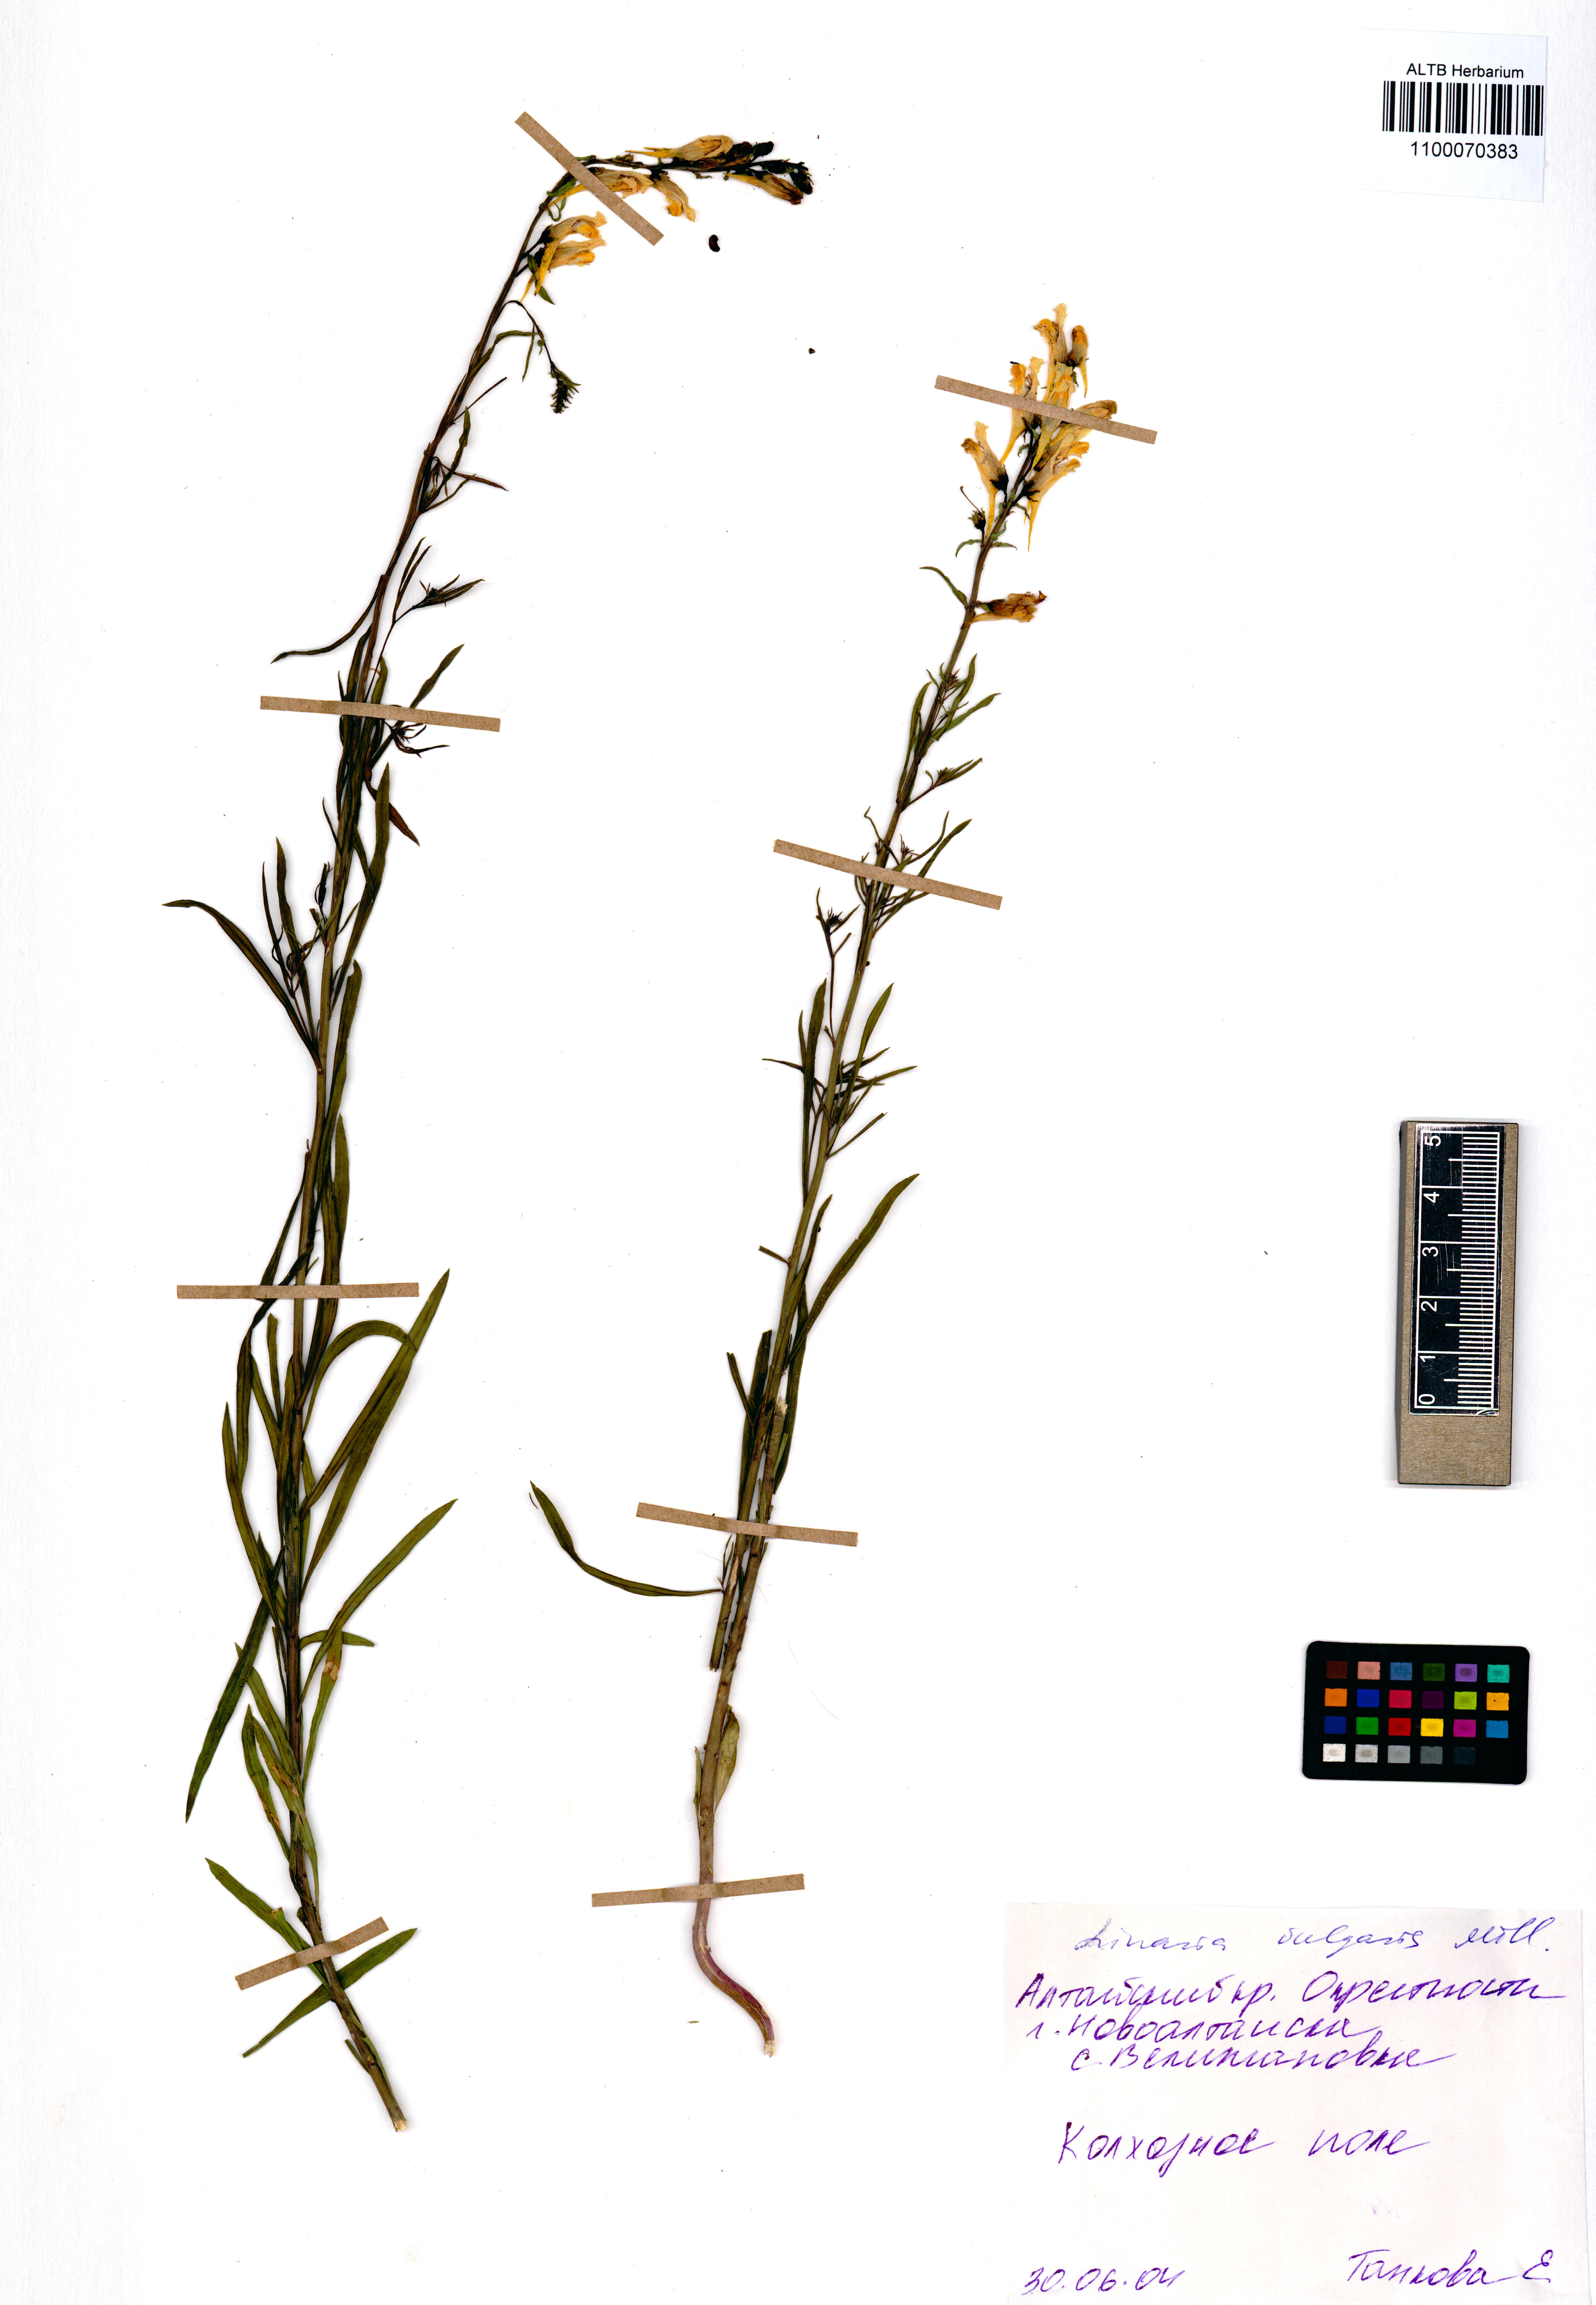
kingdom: Plantae
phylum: Tracheophyta
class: Magnoliopsida
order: Lamiales
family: Plantaginaceae
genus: Linaria
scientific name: Linaria vulgaris
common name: Butter and eggs
